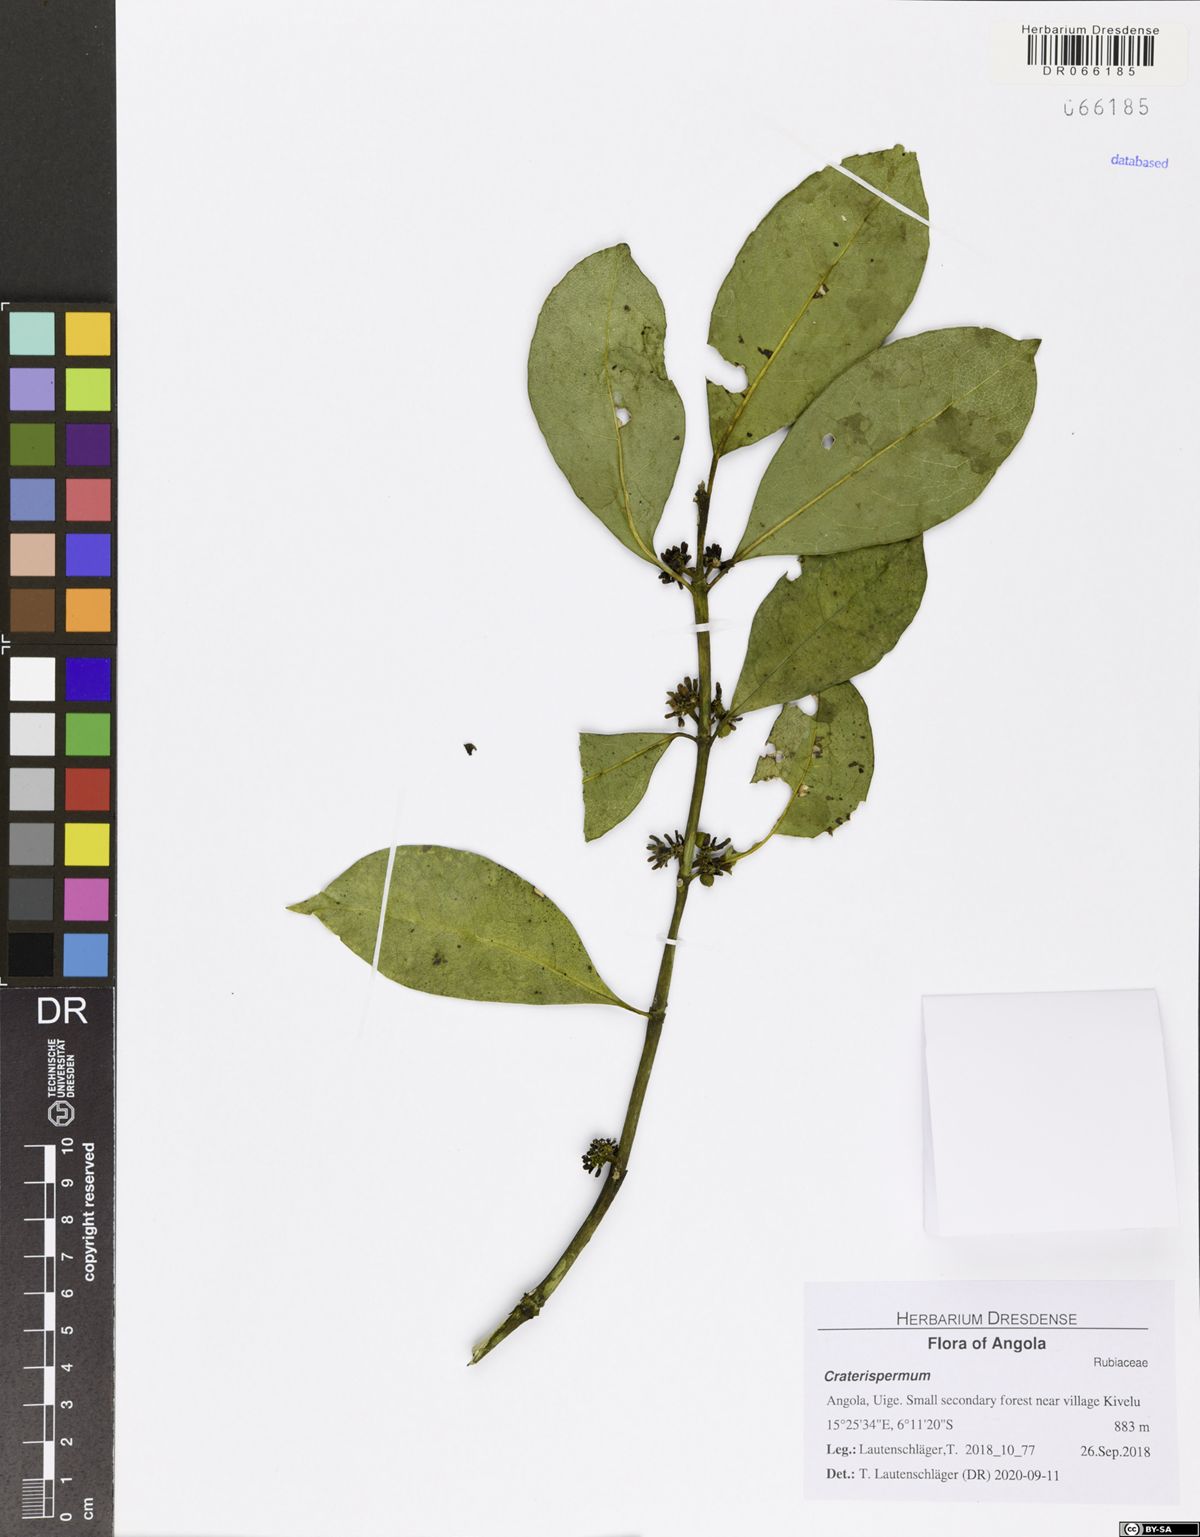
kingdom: Plantae
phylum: Tracheophyta
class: Magnoliopsida
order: Gentianales
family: Rubiaceae
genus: Craterispermum
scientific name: Craterispermum cerinanthum
